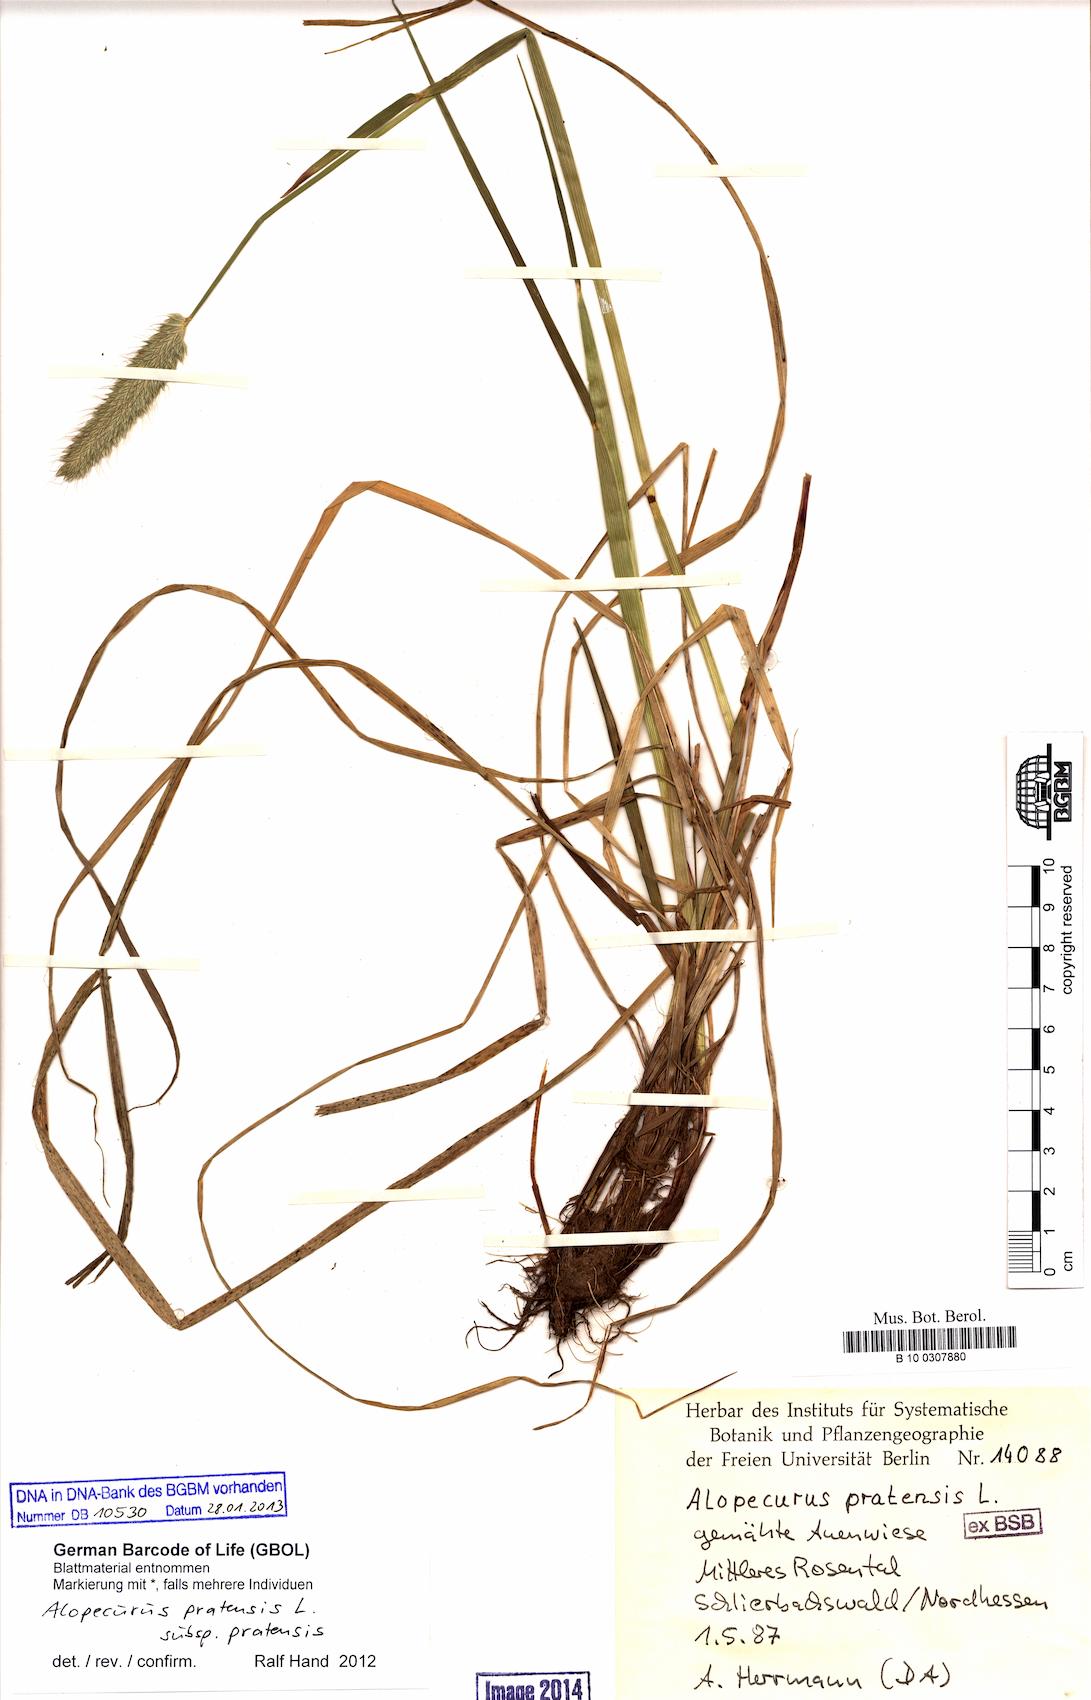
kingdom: Plantae
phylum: Tracheophyta
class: Liliopsida
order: Poales
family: Poaceae
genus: Alopecurus
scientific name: Alopecurus pratensis
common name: Meadow foxtail
